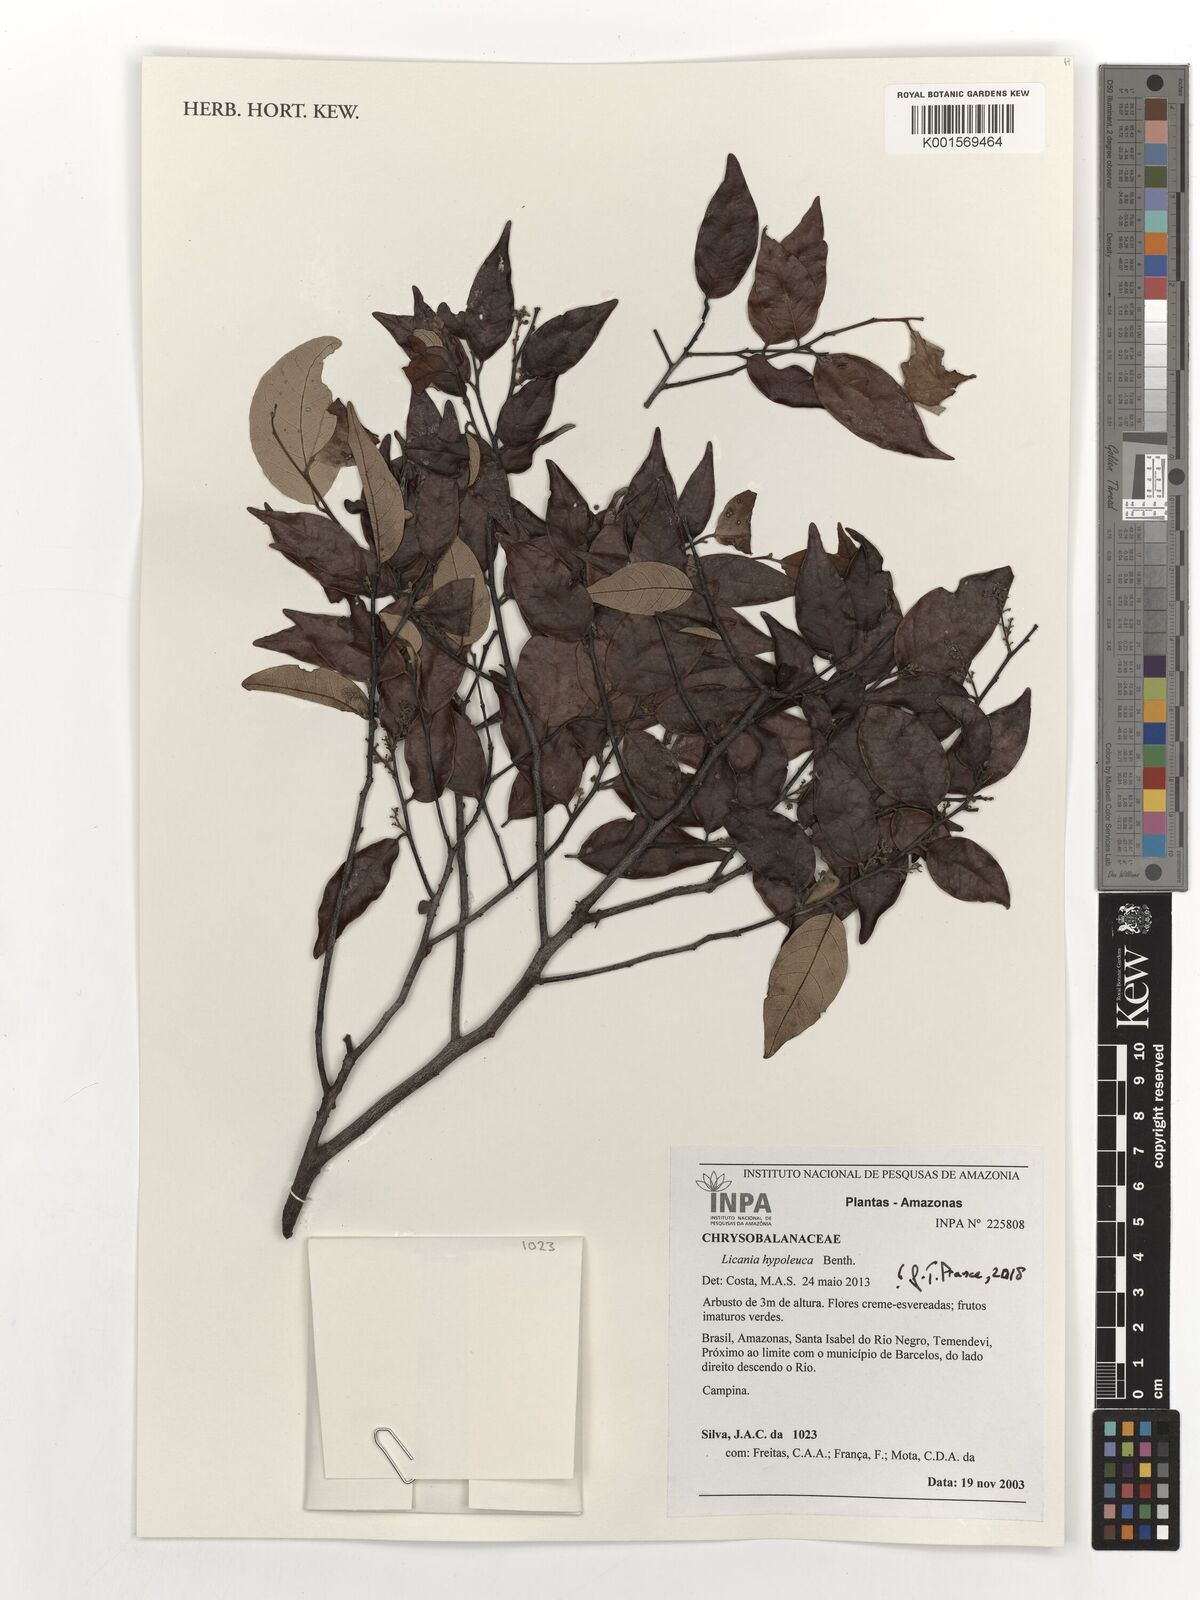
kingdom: Plantae
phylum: Tracheophyta
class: Magnoliopsida
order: Malpighiales
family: Chrysobalanaceae
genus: Licania
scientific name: Licania hypoleuca
